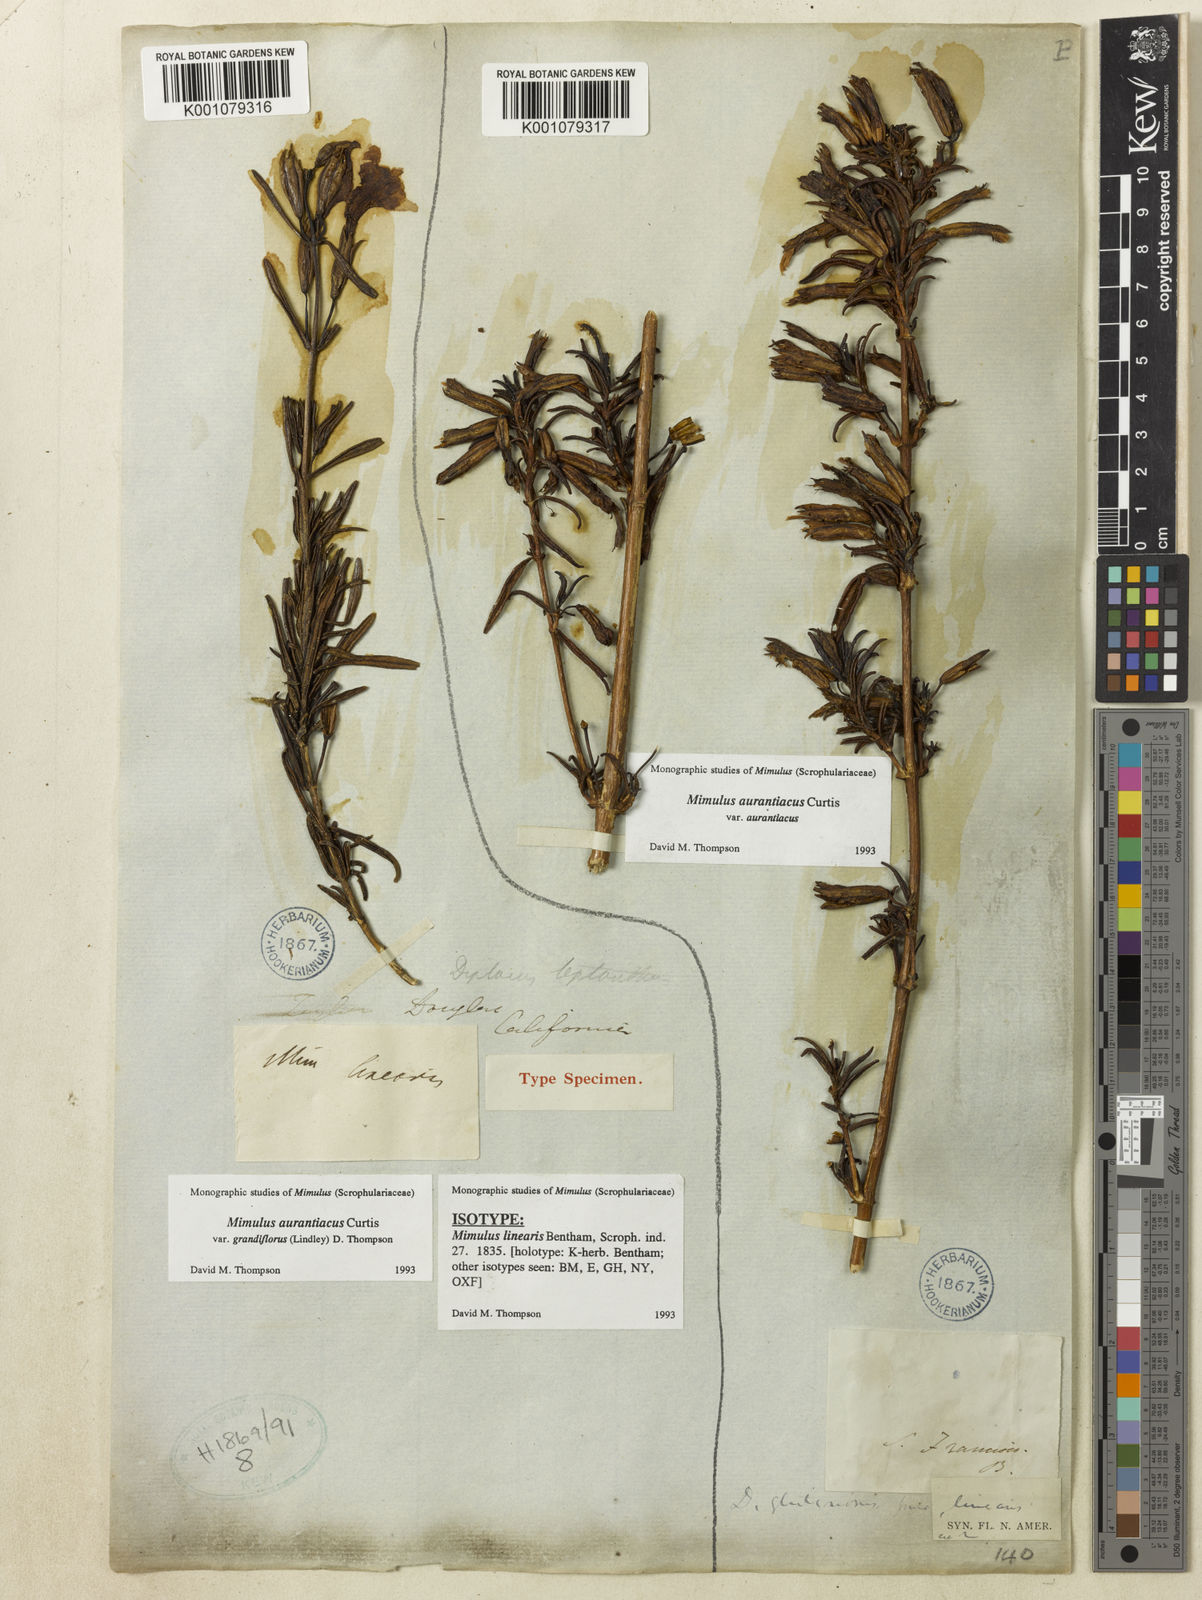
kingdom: Plantae
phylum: Tracheophyta
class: Magnoliopsida
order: Lamiales
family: Phrymaceae
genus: Diplacus
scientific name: Diplacus grandiflorus
